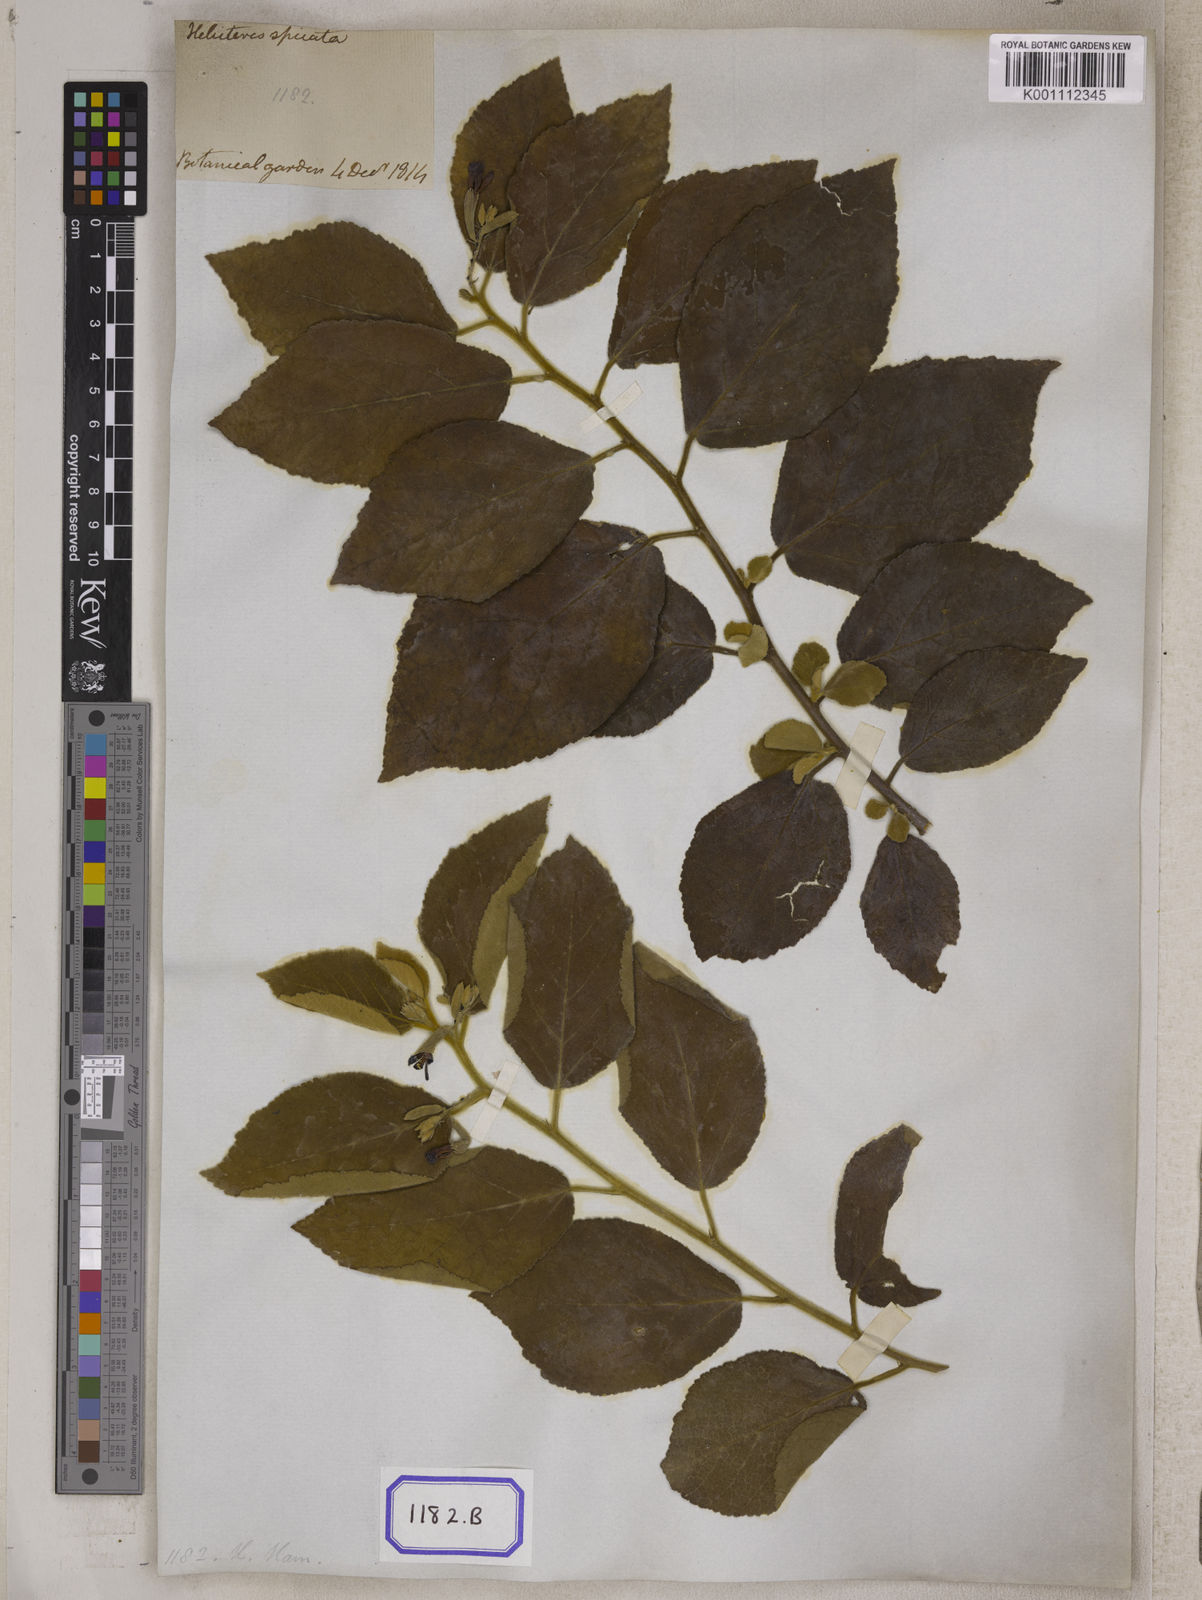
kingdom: Plantae
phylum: Tracheophyta
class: Magnoliopsida
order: Malvales
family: Malvaceae
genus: Helicteres
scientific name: Helicteres
